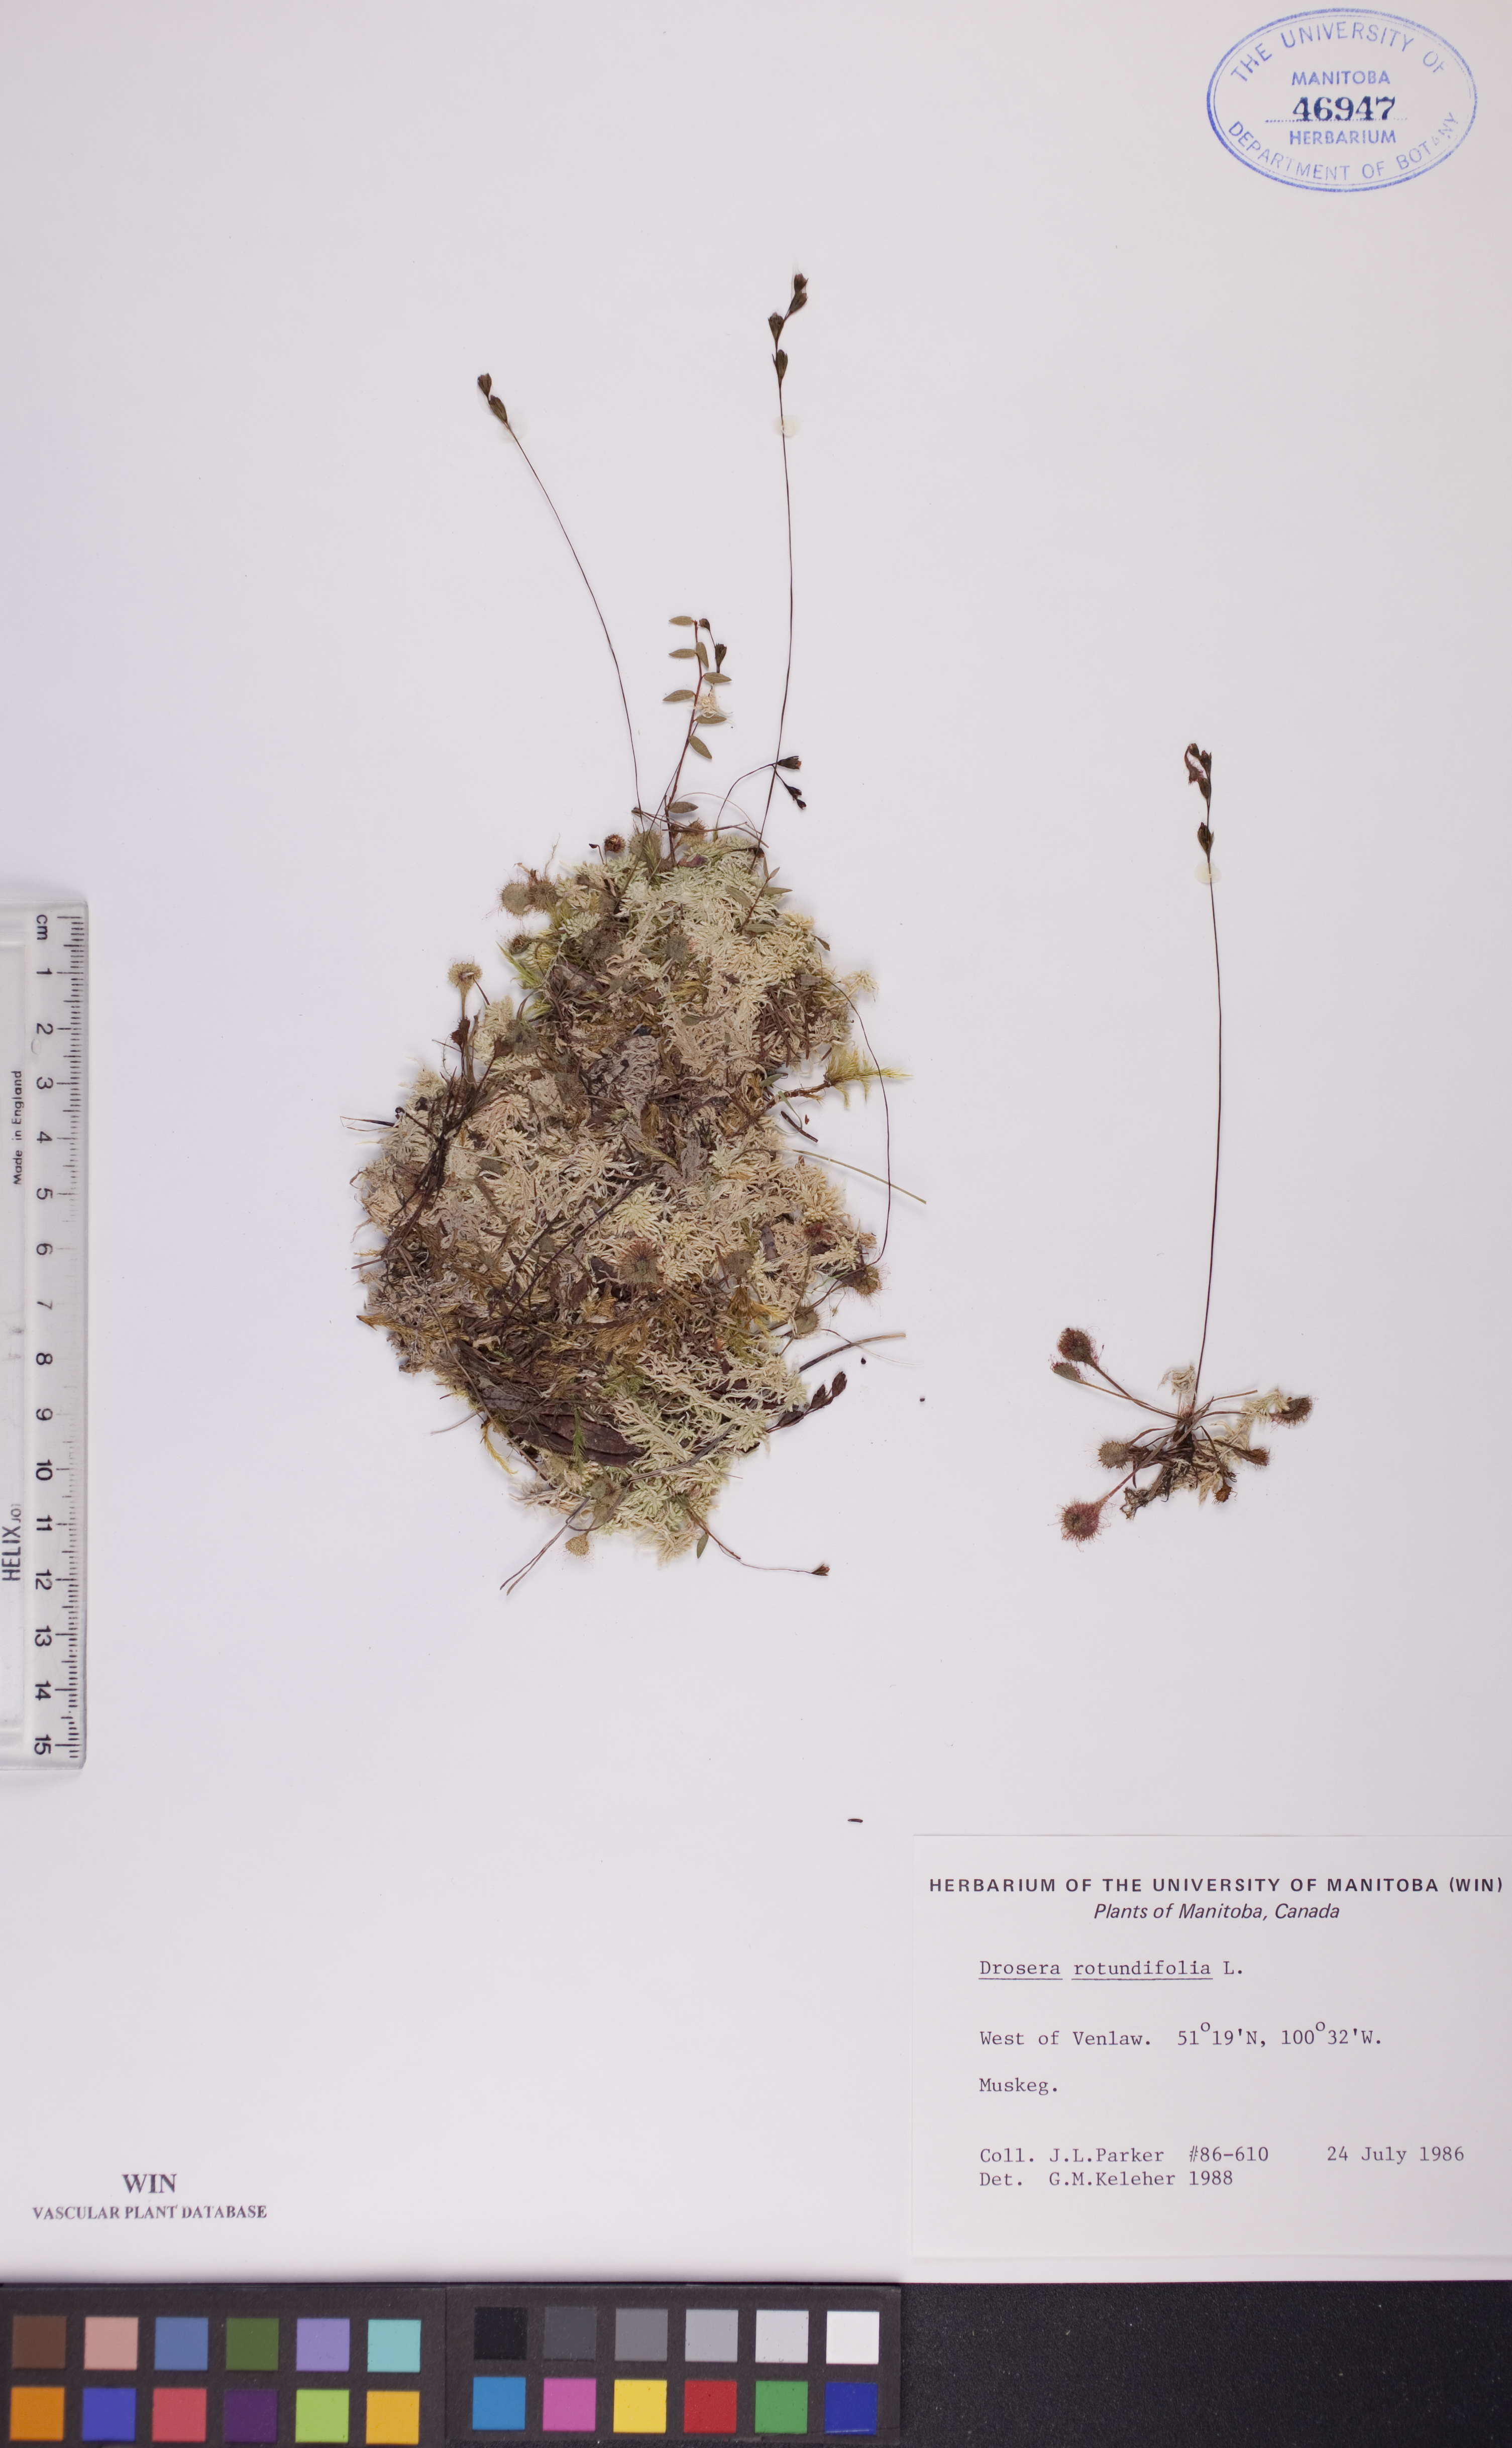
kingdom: Plantae
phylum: Tracheophyta
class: Magnoliopsida
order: Caryophyllales
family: Droseraceae
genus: Drosera
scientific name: Drosera rotundifolia
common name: Round-leaved sundew
